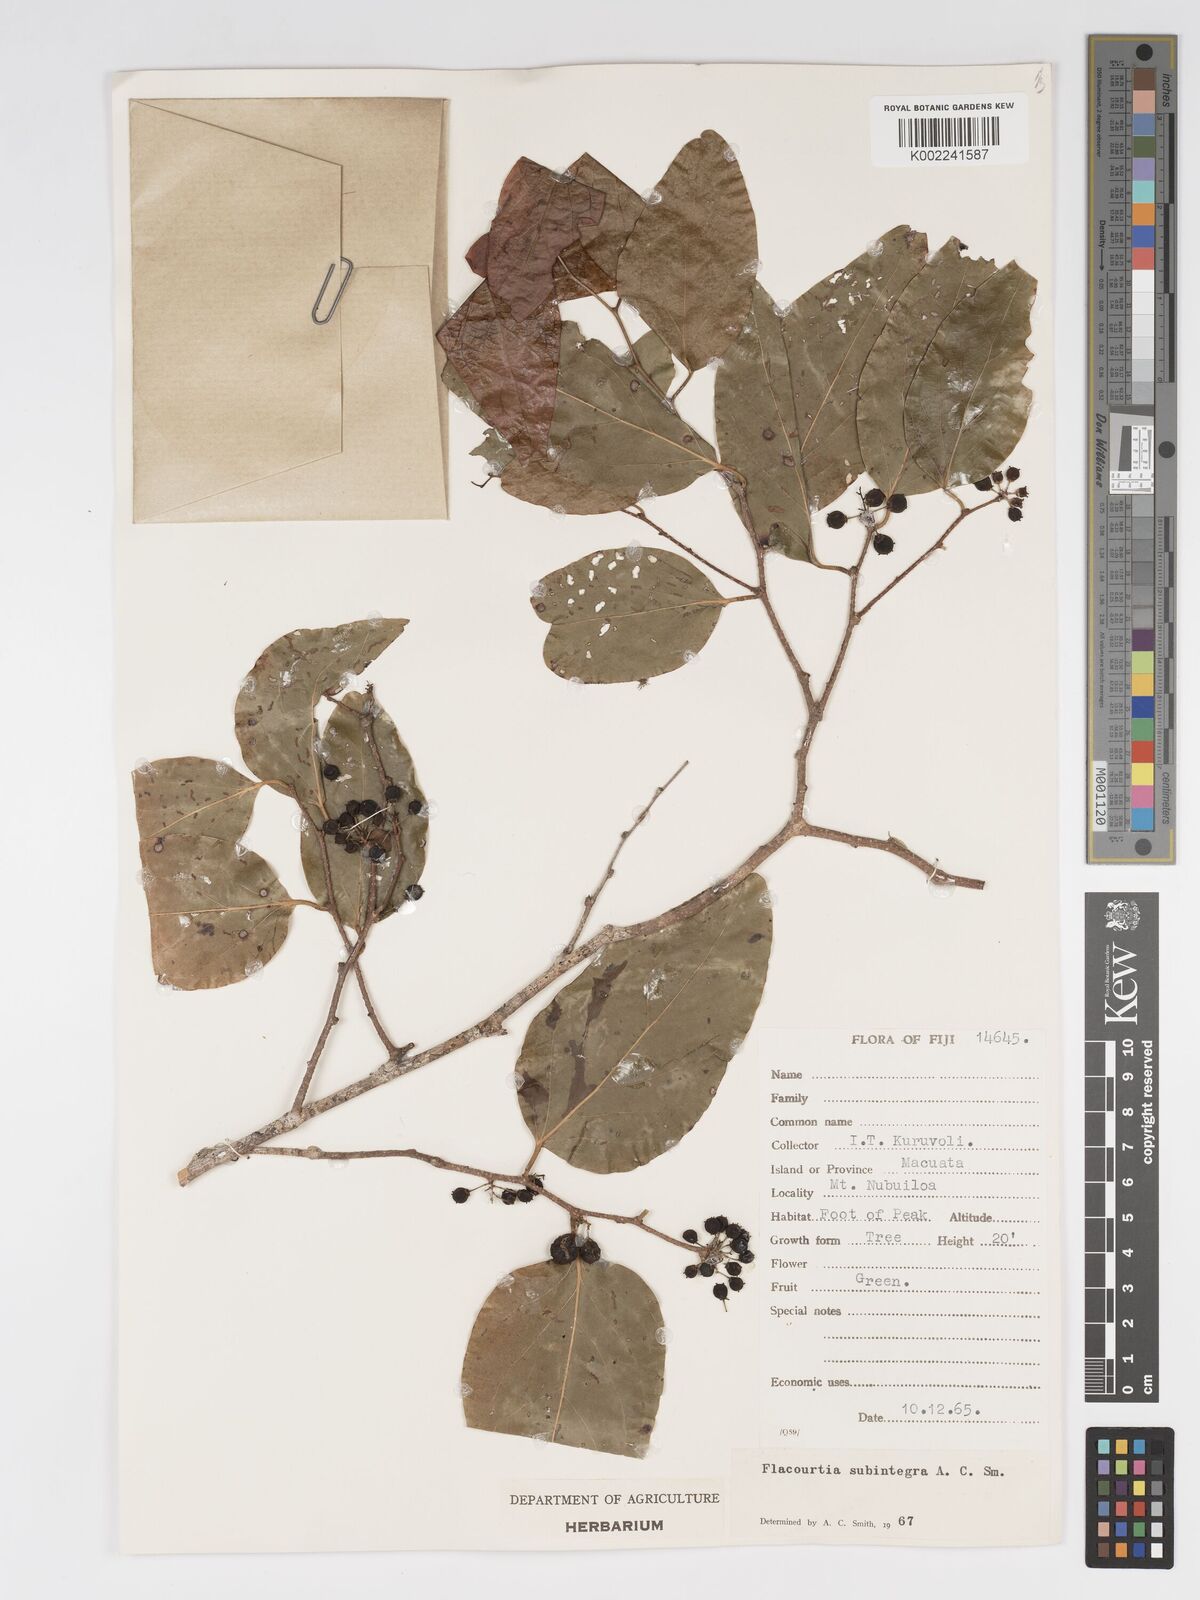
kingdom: Plantae
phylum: Tracheophyta
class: Magnoliopsida
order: Malpighiales
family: Salicaceae
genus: Flacourtia
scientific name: Flacourtia vitiensis
